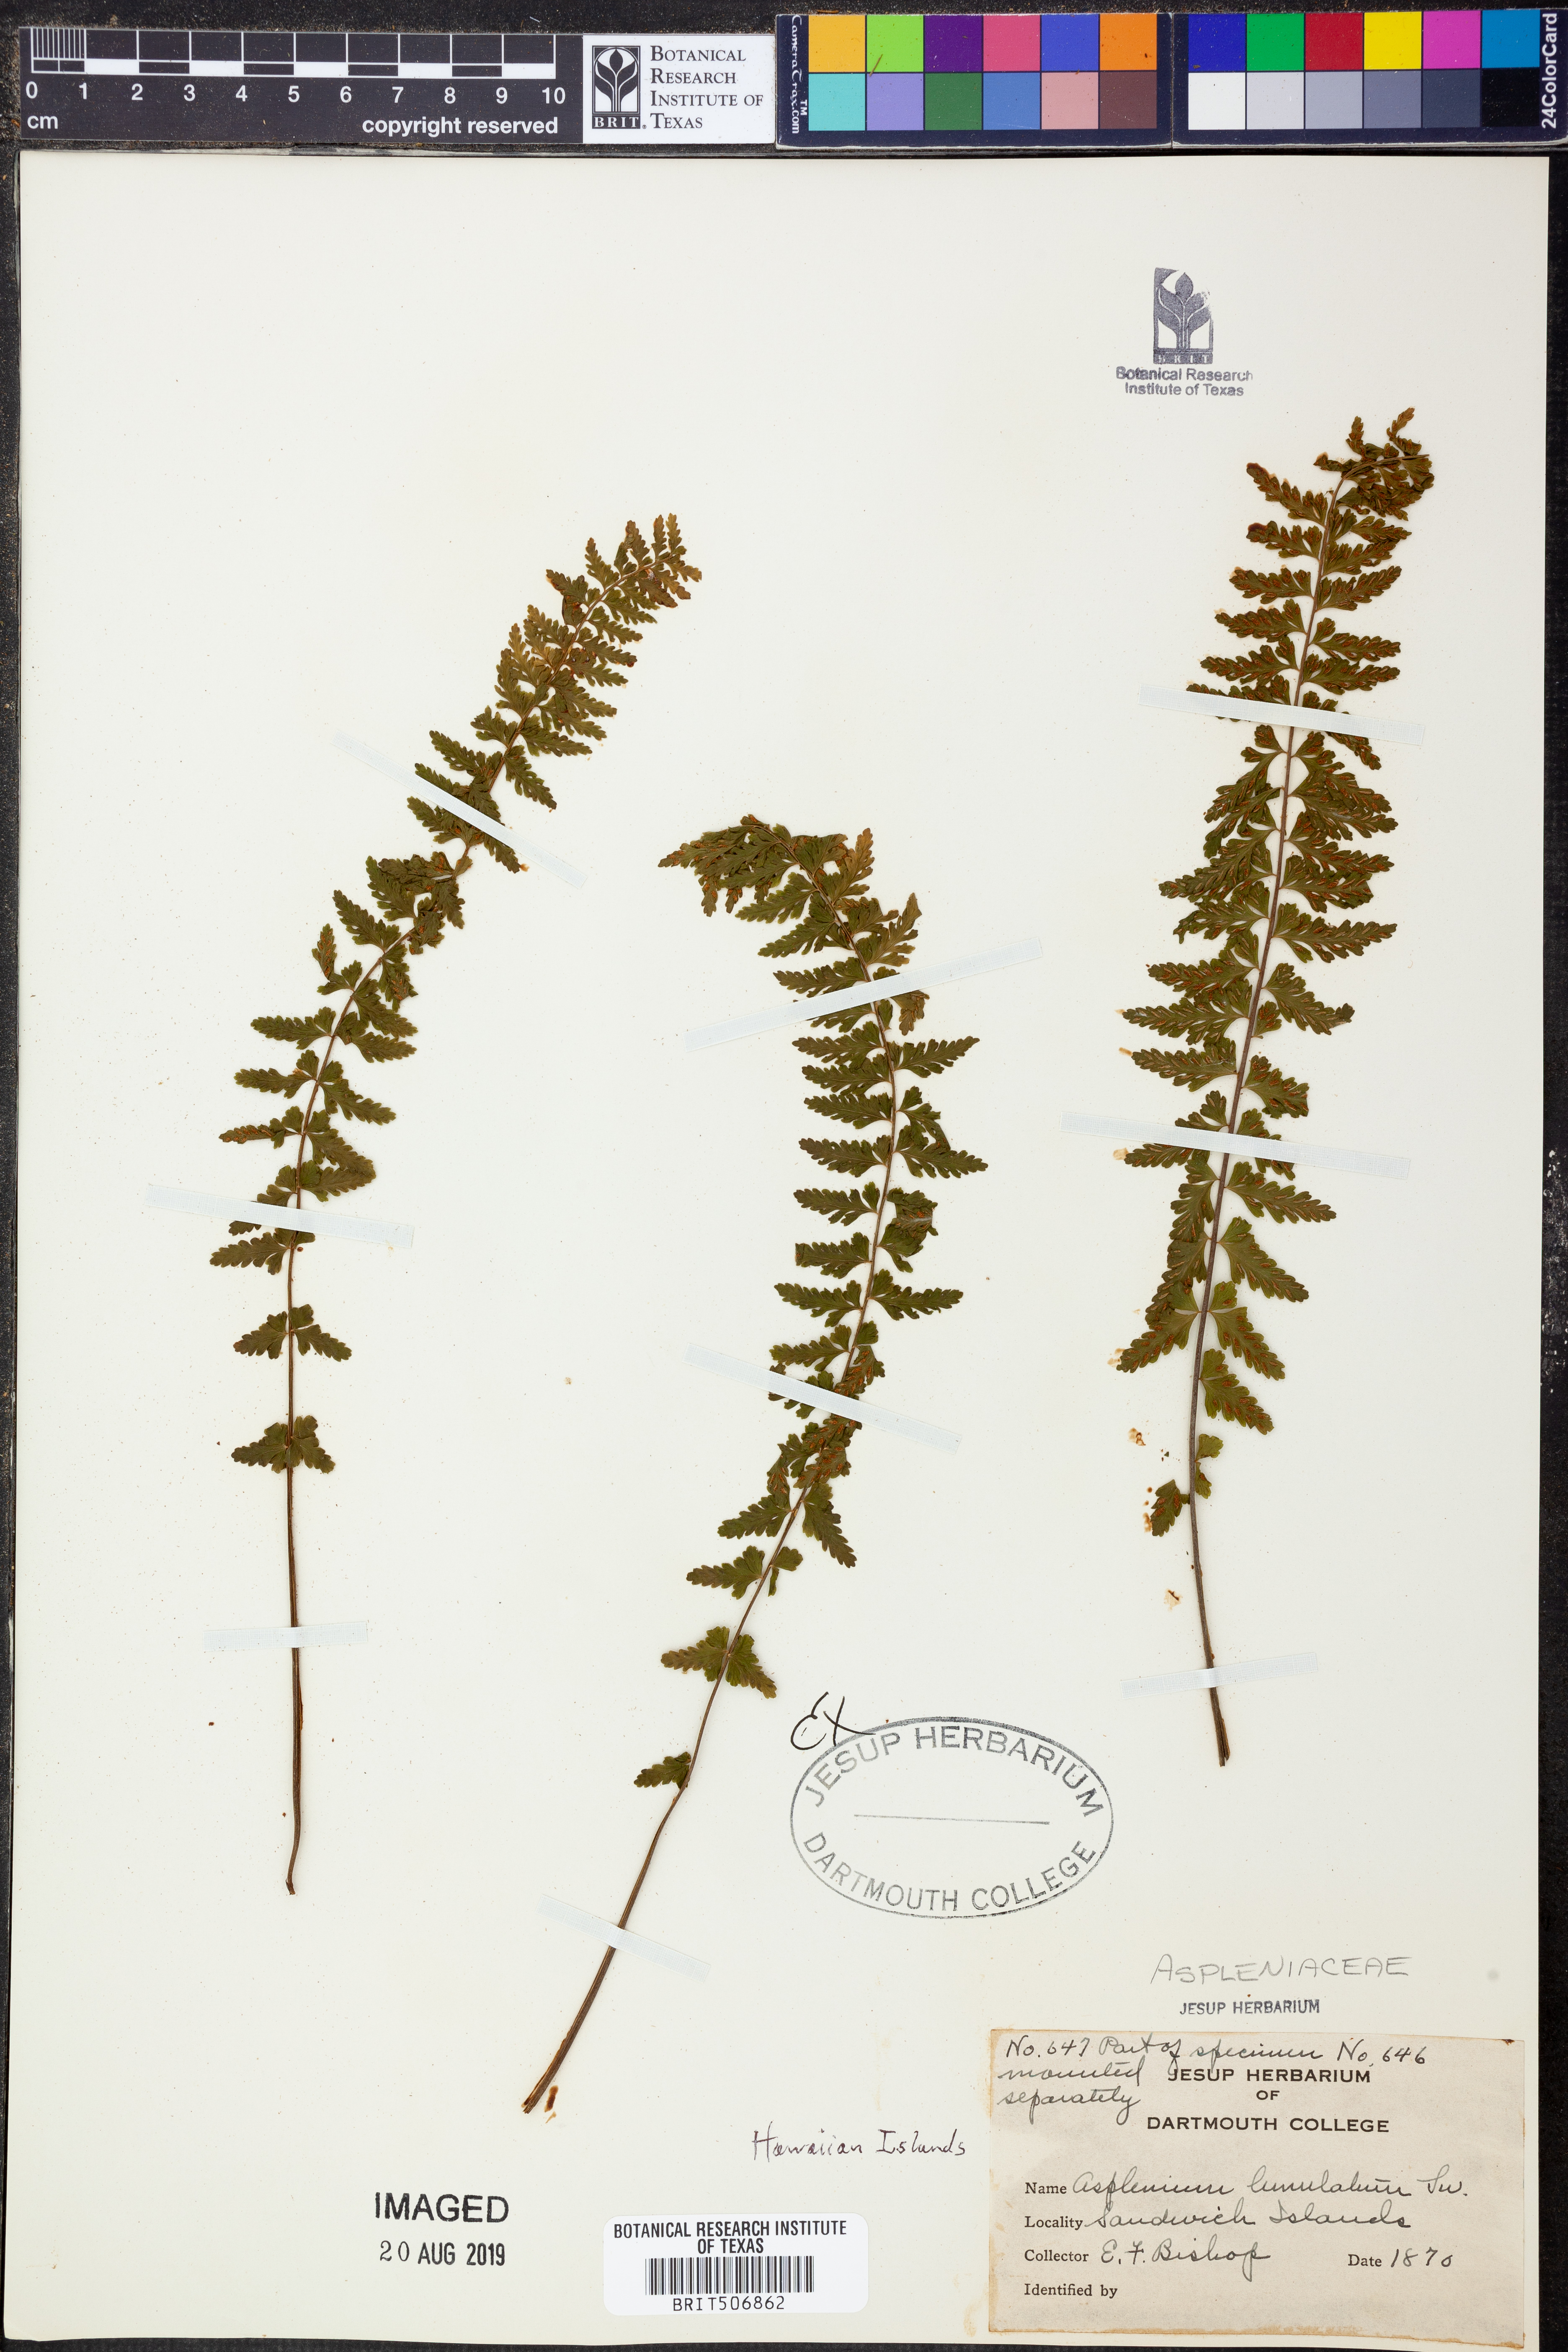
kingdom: Plantae
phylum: Tracheophyta
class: Polypodiopsida
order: Polypodiales
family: Aspleniaceae
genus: Asplenium
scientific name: Asplenium lunulatum
